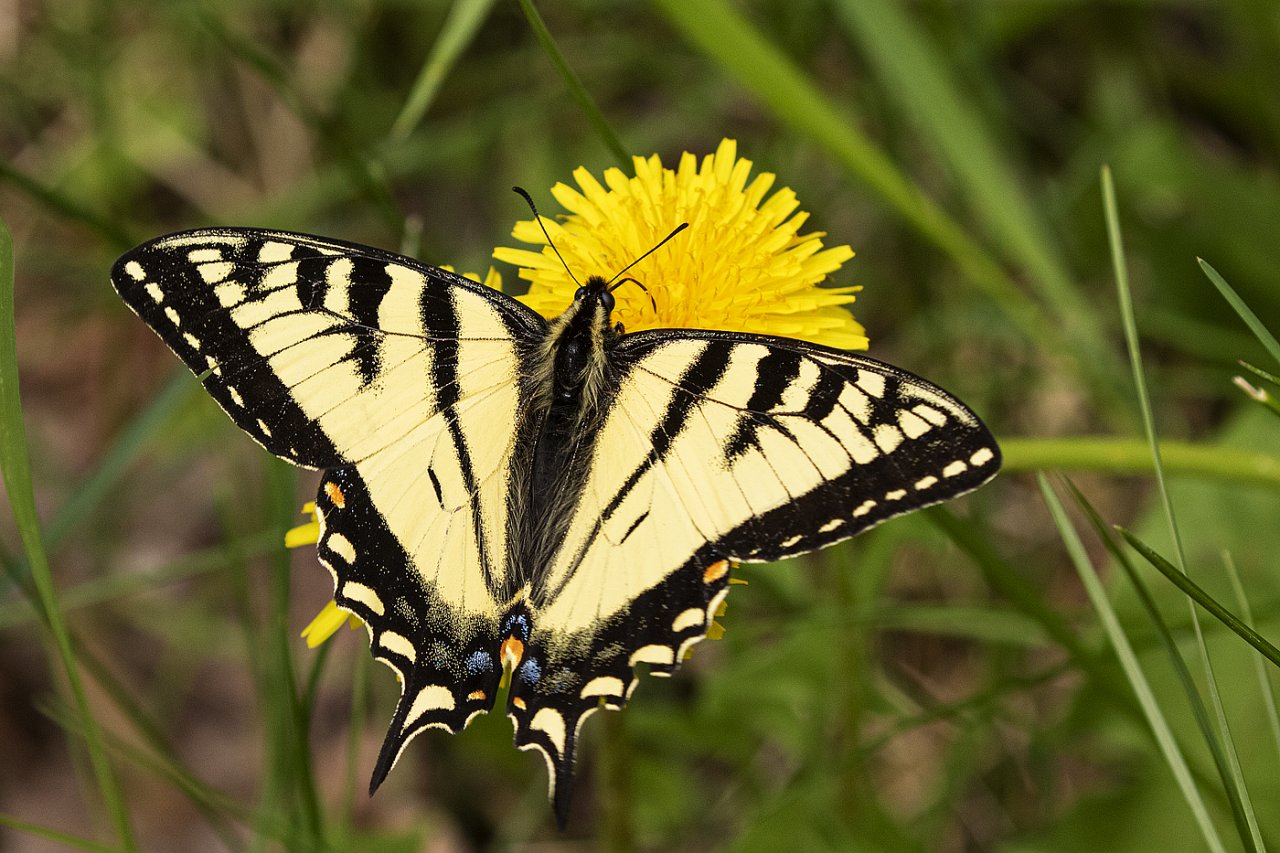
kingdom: Animalia
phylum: Arthropoda
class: Insecta
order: Lepidoptera
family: Papilionidae
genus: Pterourus
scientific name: Pterourus canadensis
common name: Canadian Tiger Swallowtail
